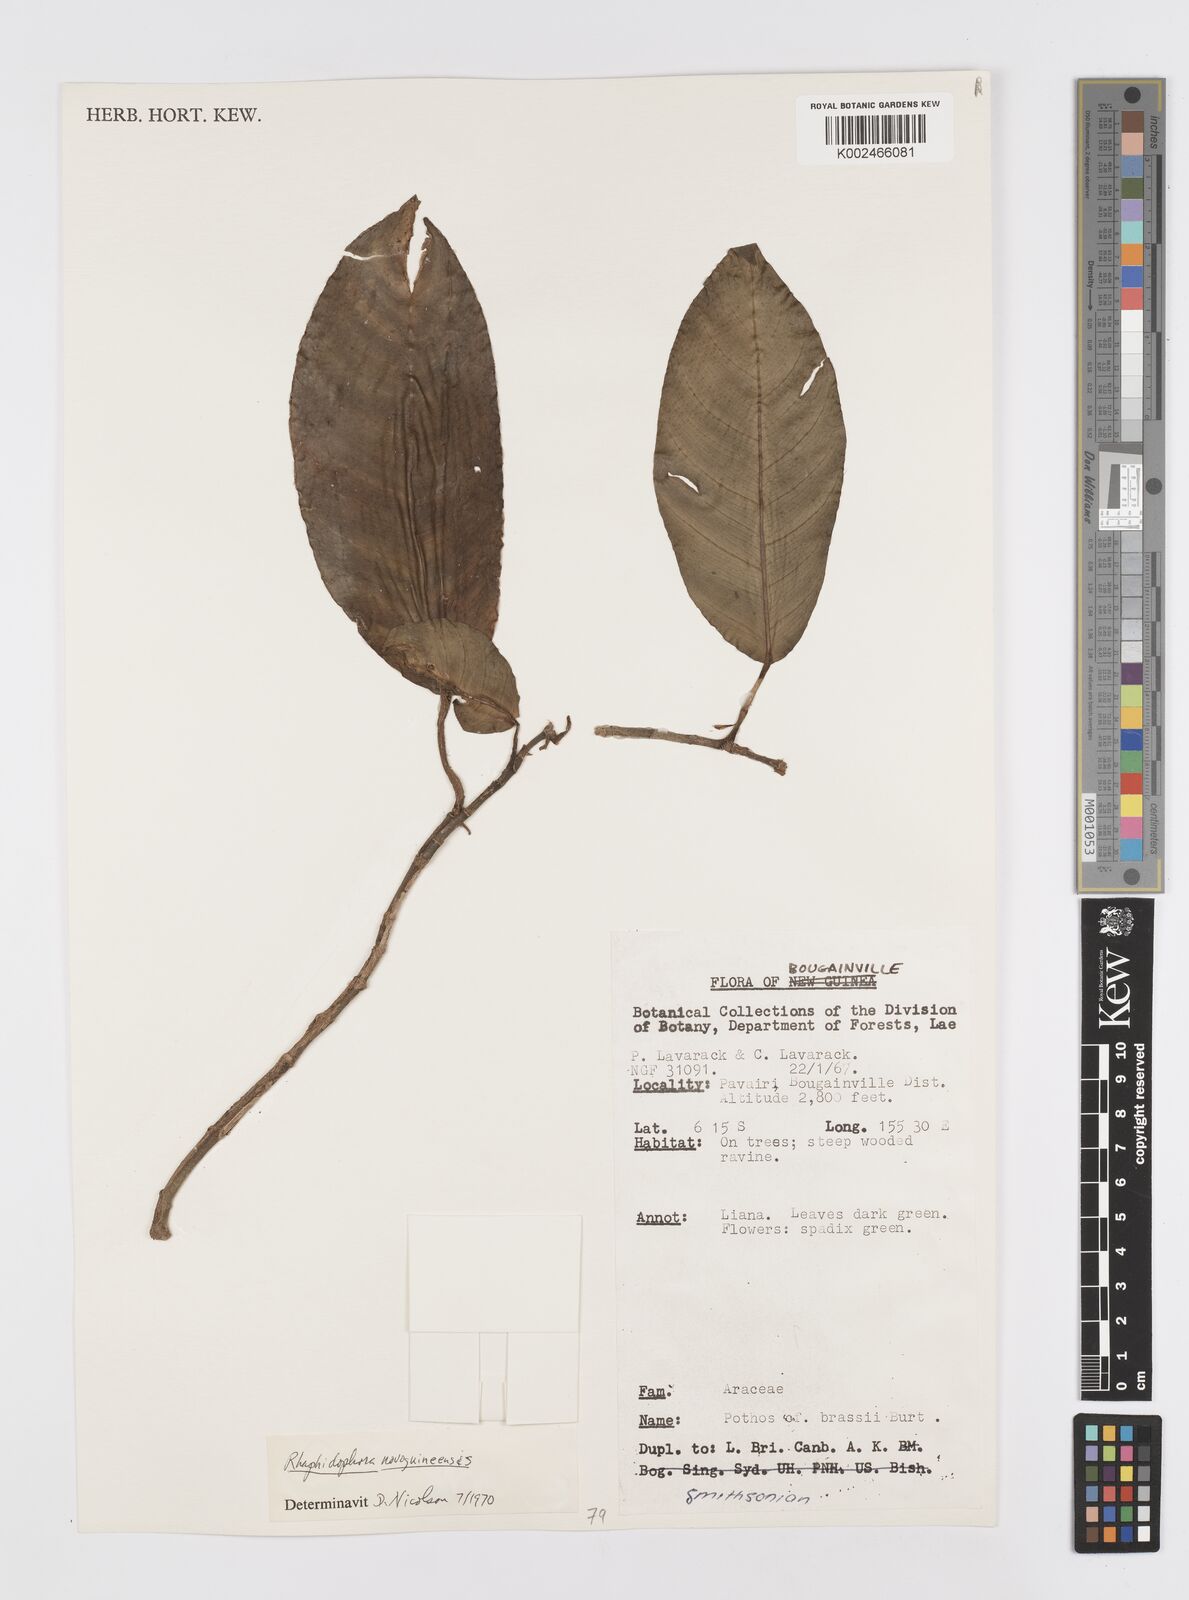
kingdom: Plantae
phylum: Tracheophyta
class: Liliopsida
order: Alismatales
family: Araceae
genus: Rhaphidophora
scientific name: Rhaphidophora mima
